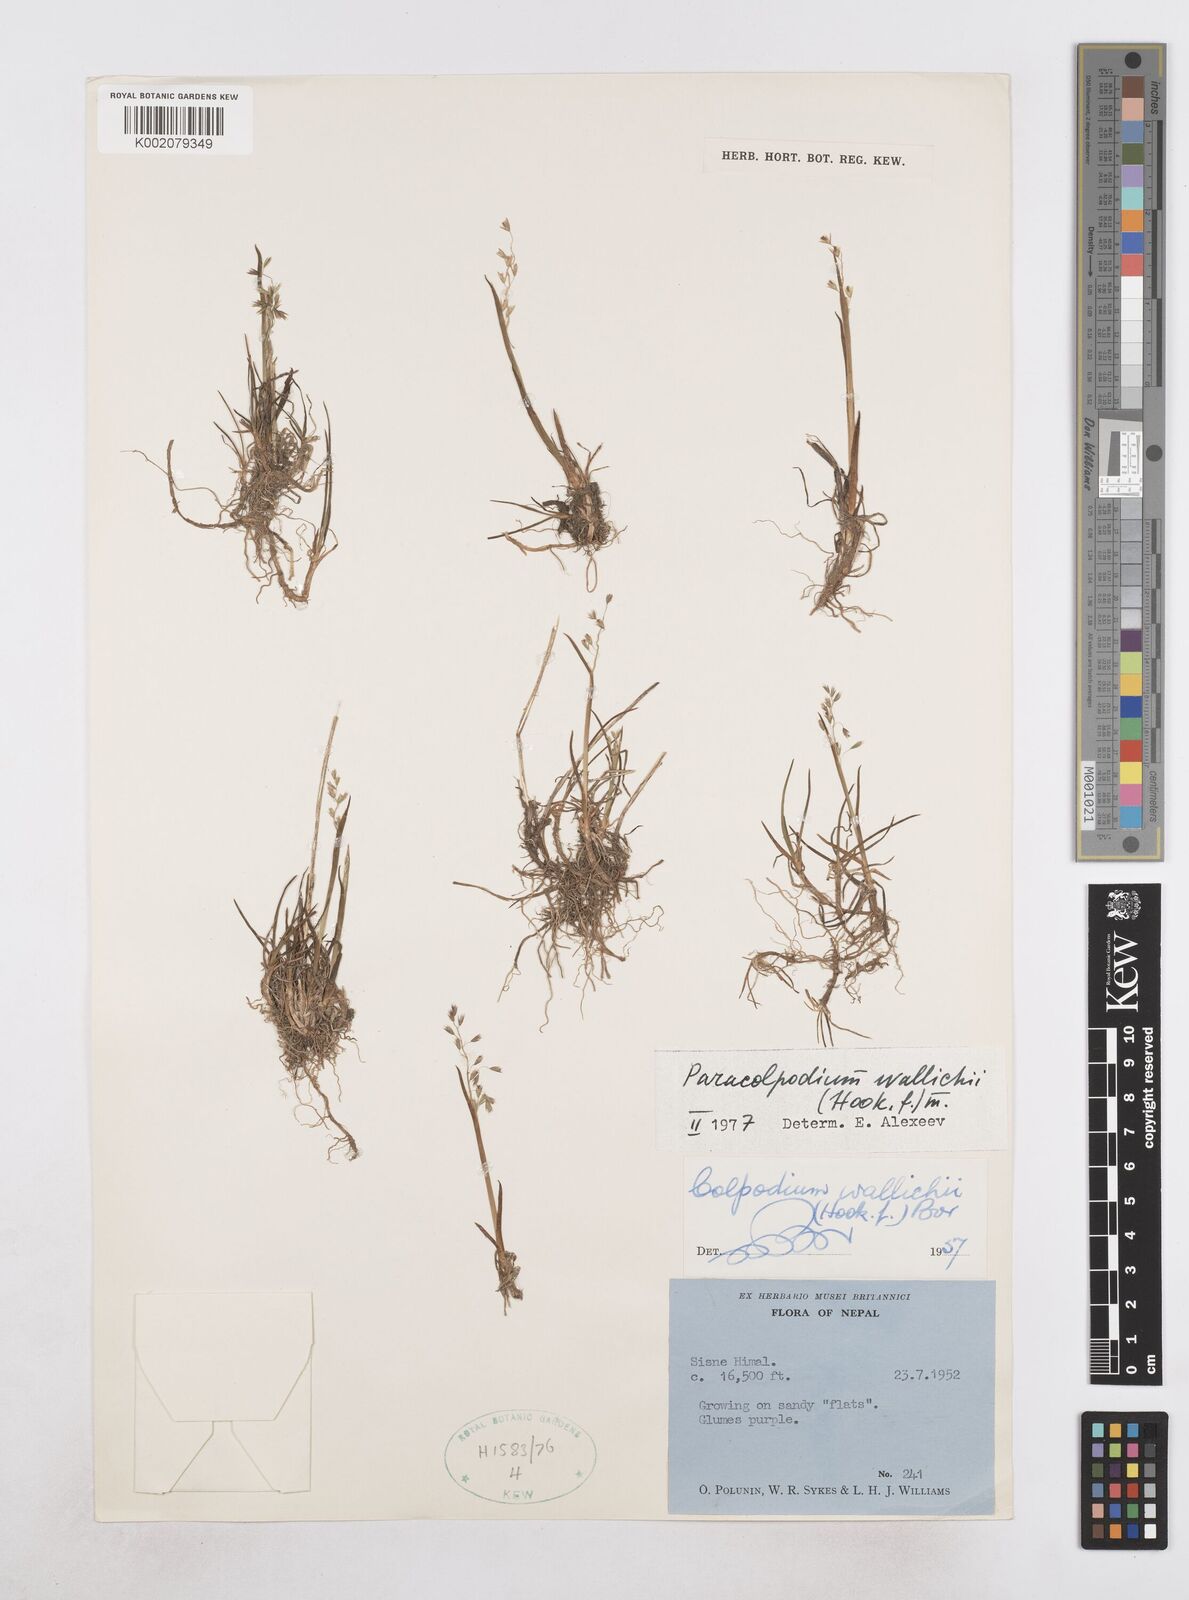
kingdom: Plantae
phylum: Tracheophyta
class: Liliopsida
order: Poales
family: Poaceae
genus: Paracolpodium
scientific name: Paracolpodium wallichii
